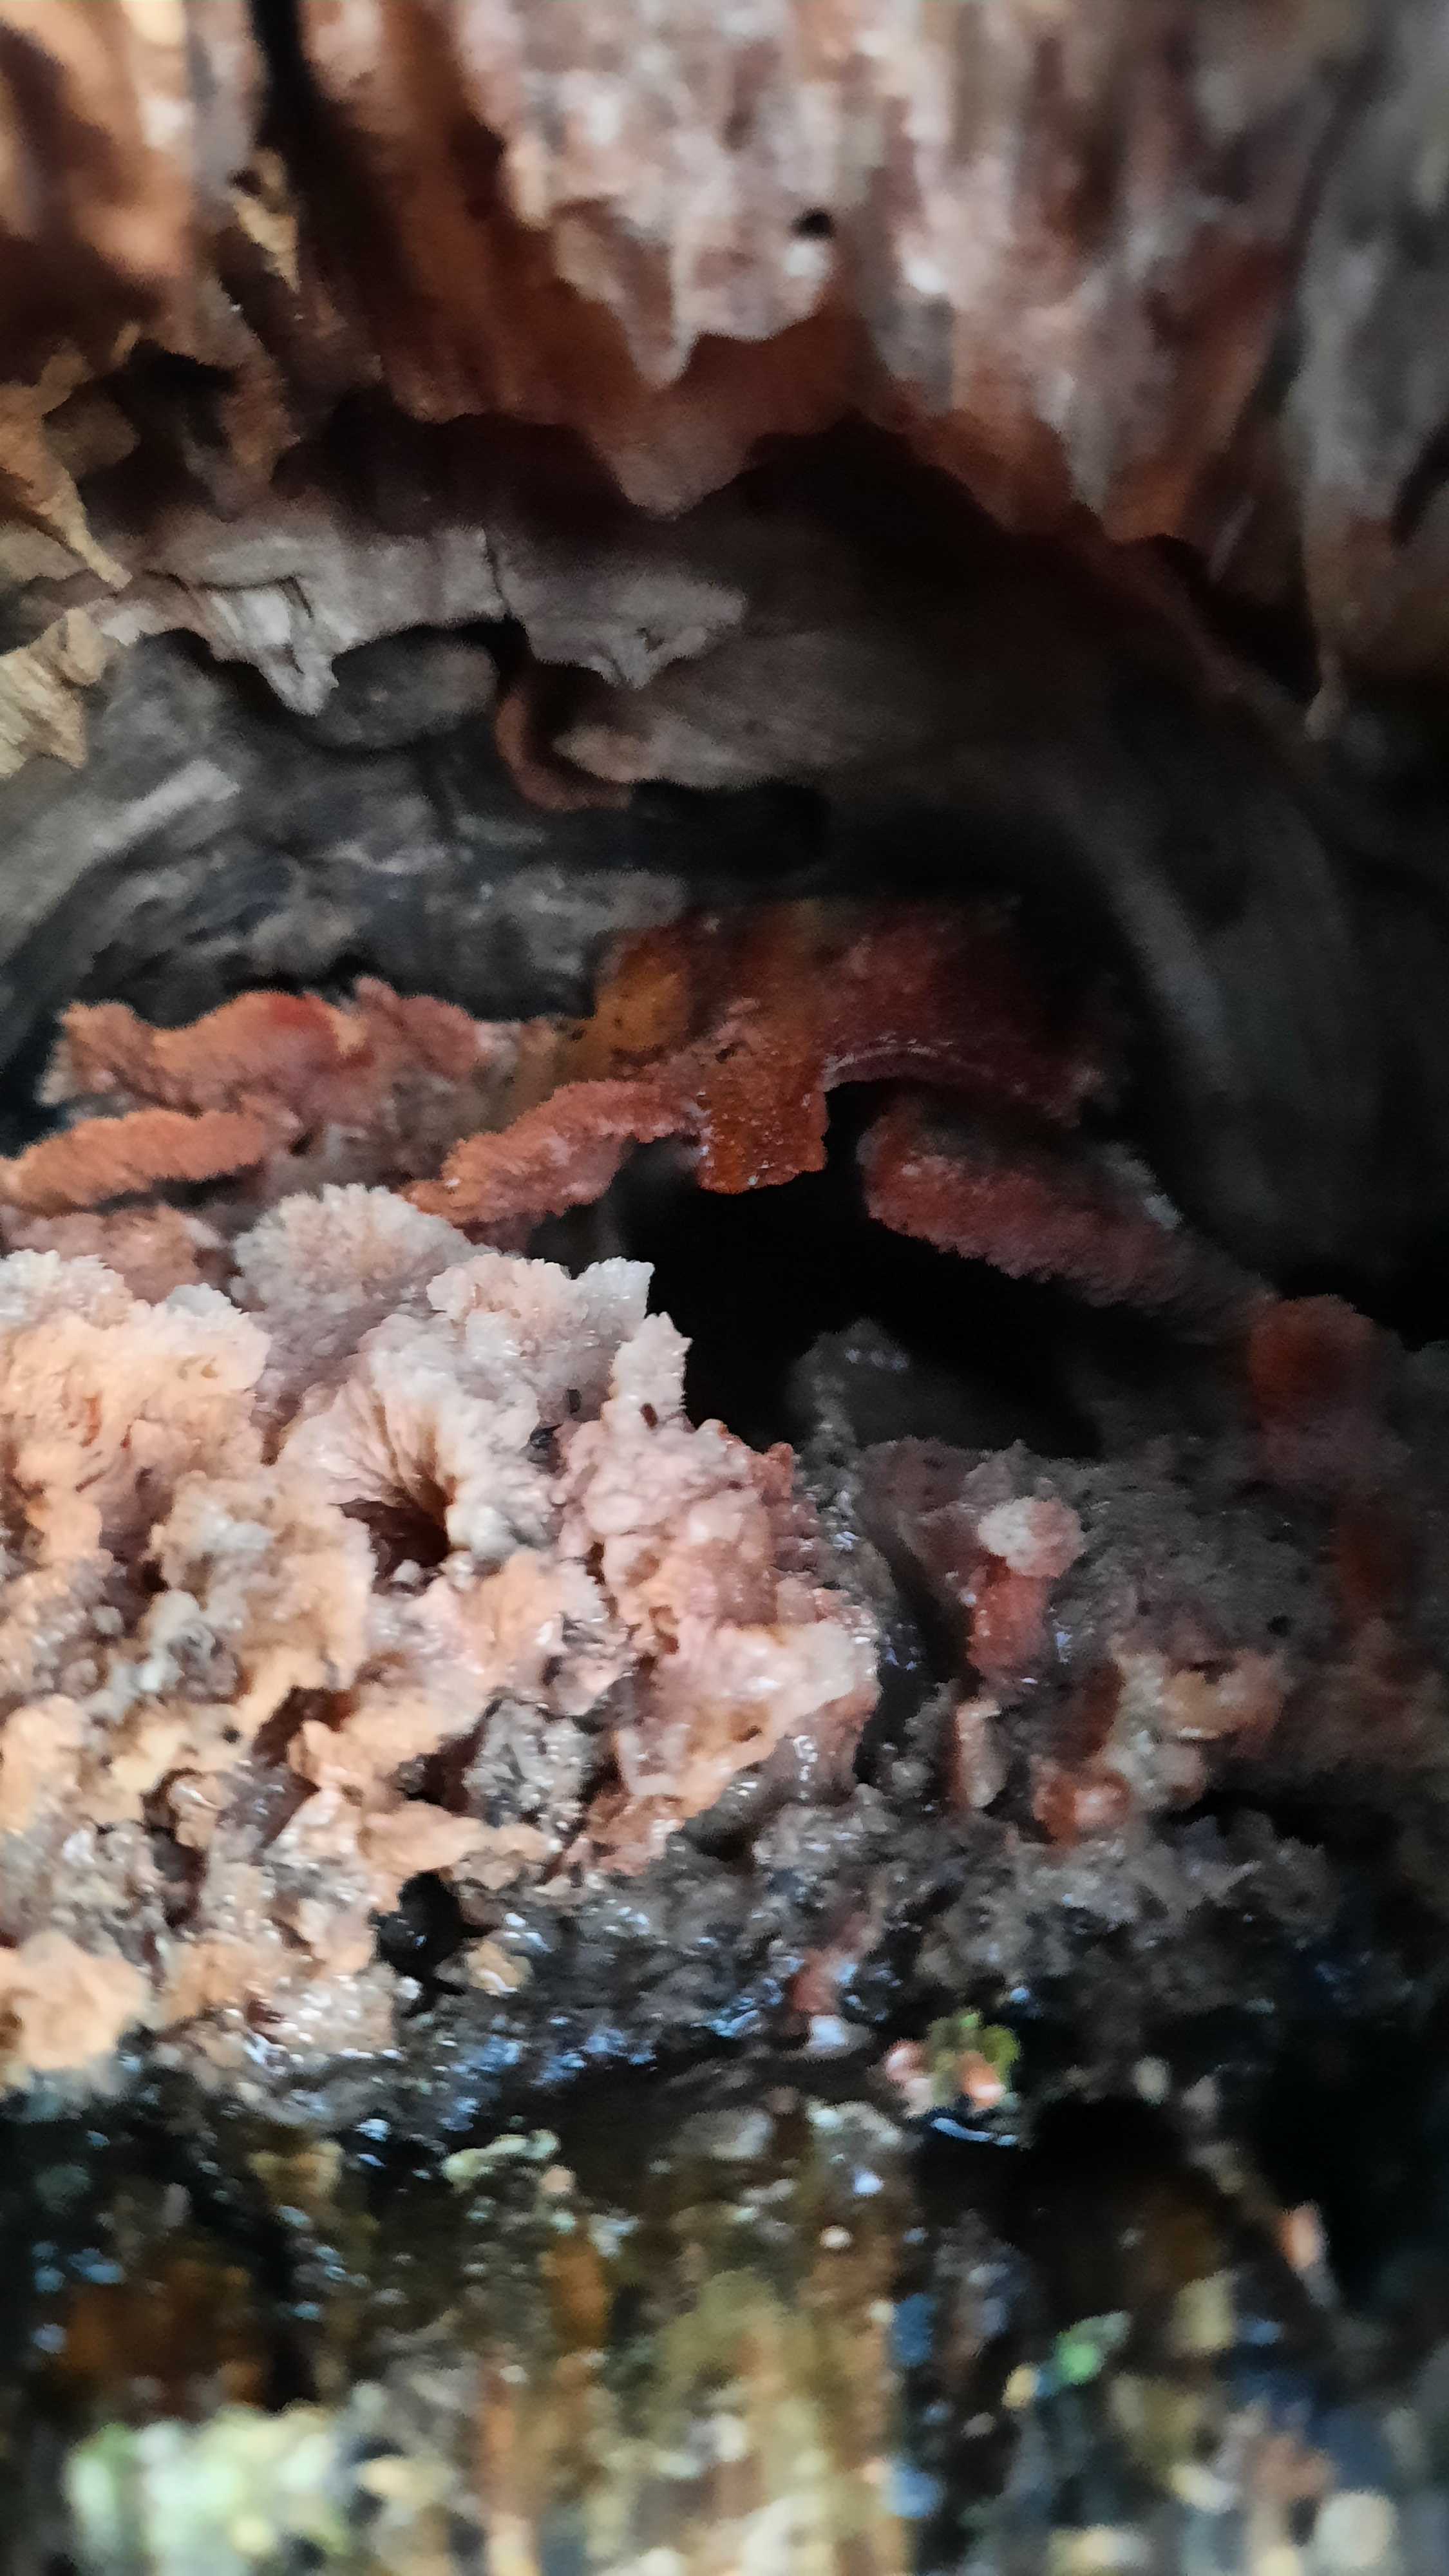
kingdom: Fungi
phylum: Basidiomycota
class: Agaricomycetes
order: Polyporales
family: Meruliaceae
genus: Phlebia
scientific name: Phlebia tremellosa
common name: bævrende åresvamp
